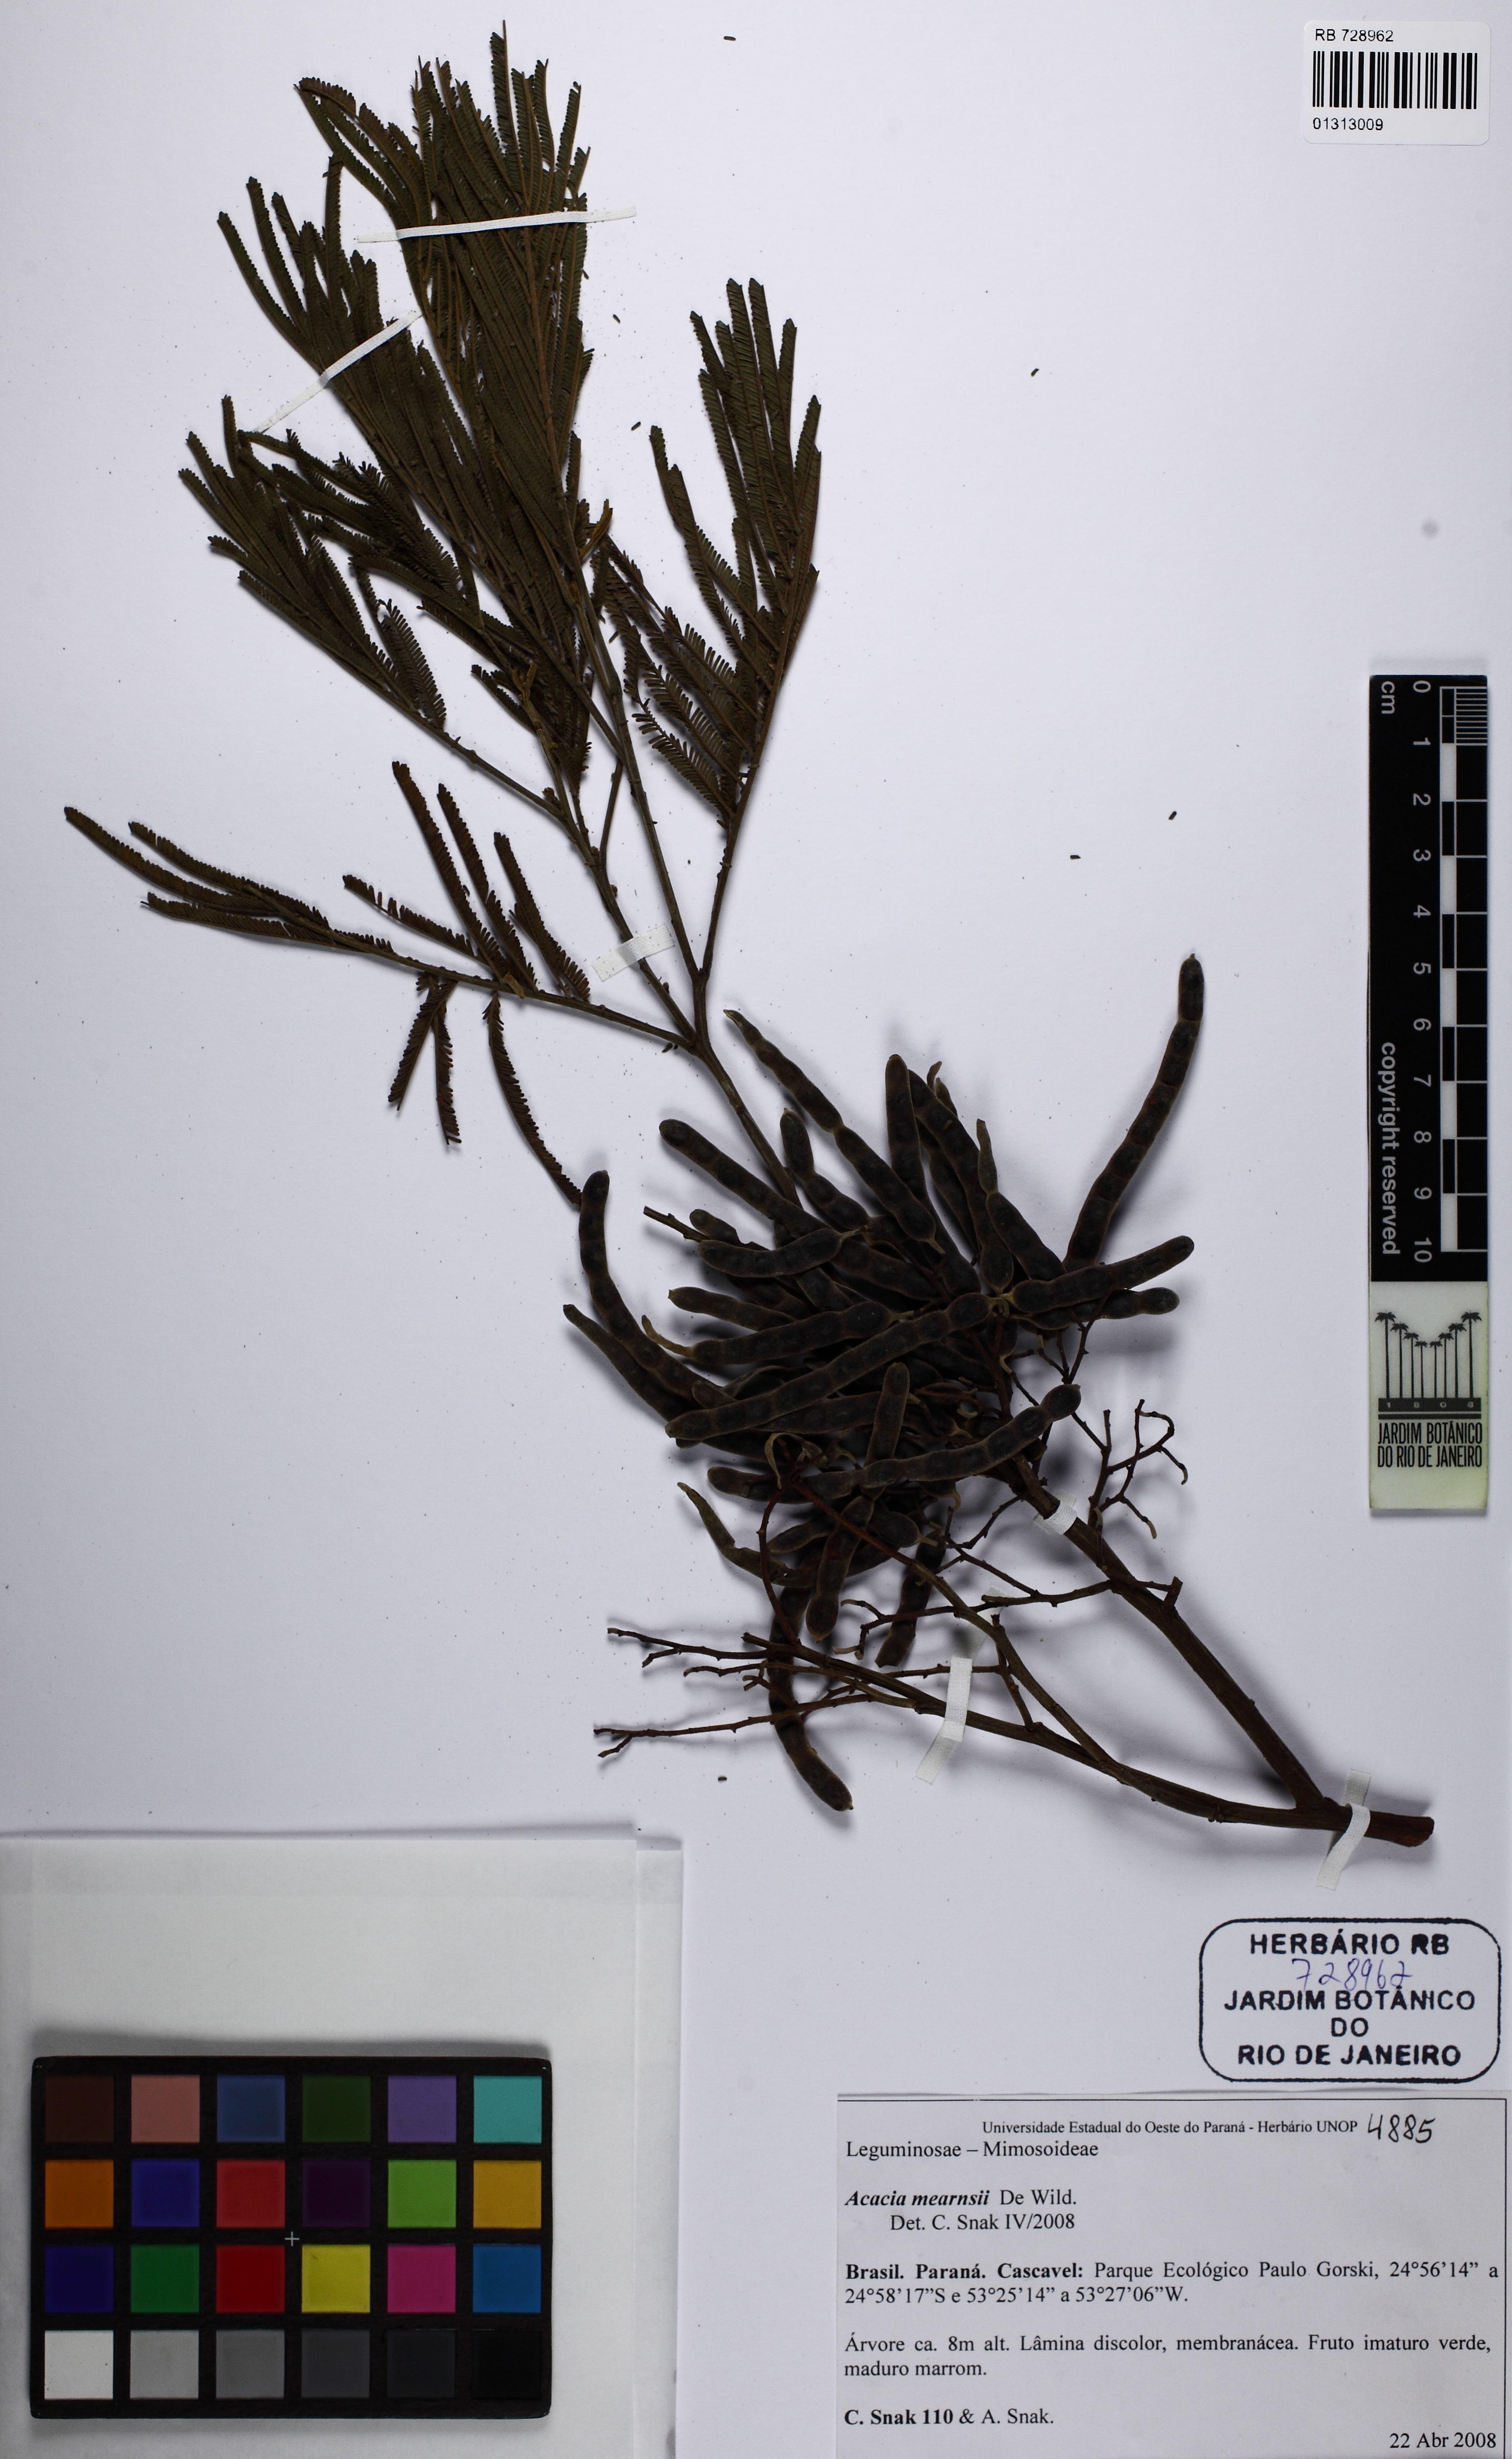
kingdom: Plantae
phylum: Tracheophyta
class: Magnoliopsida
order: Fabales
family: Fabaceae
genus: Acacia
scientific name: Acacia mearnsii
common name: Black wattle
